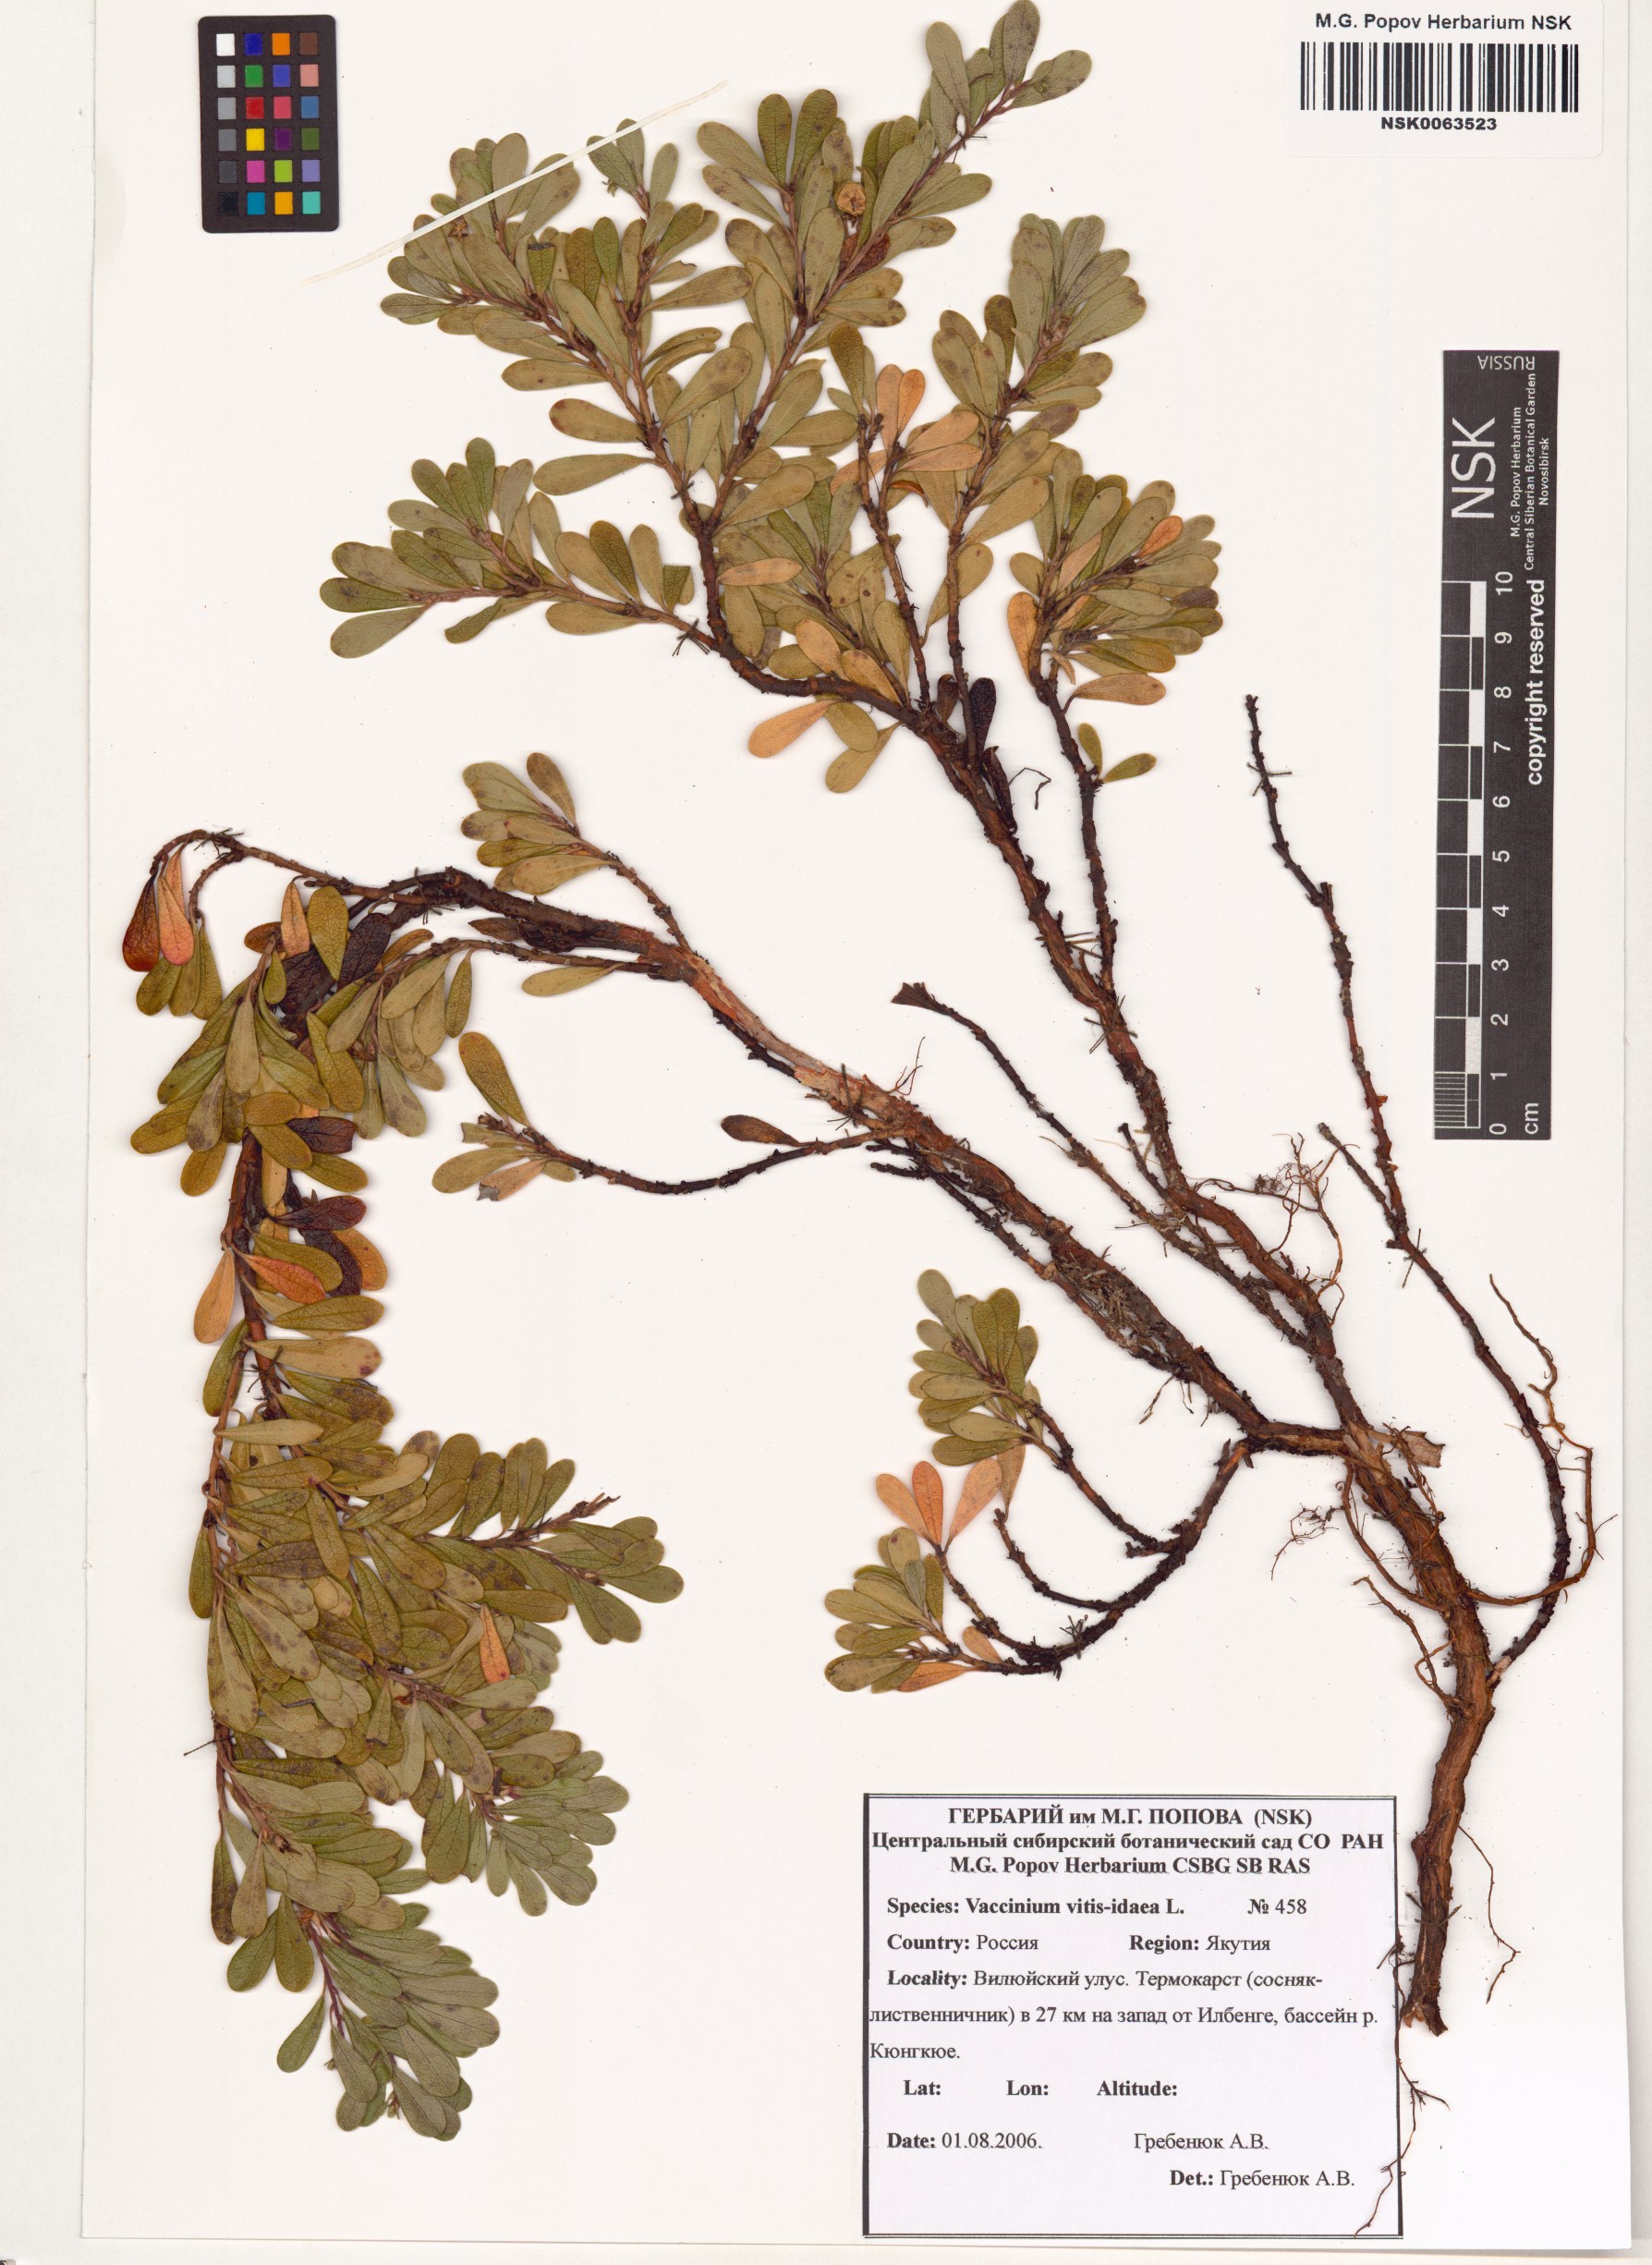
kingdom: Plantae
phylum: Tracheophyta
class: Magnoliopsida
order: Ericales
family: Ericaceae
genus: Vaccinium
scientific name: Vaccinium vitis-idaea
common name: Cowberry
